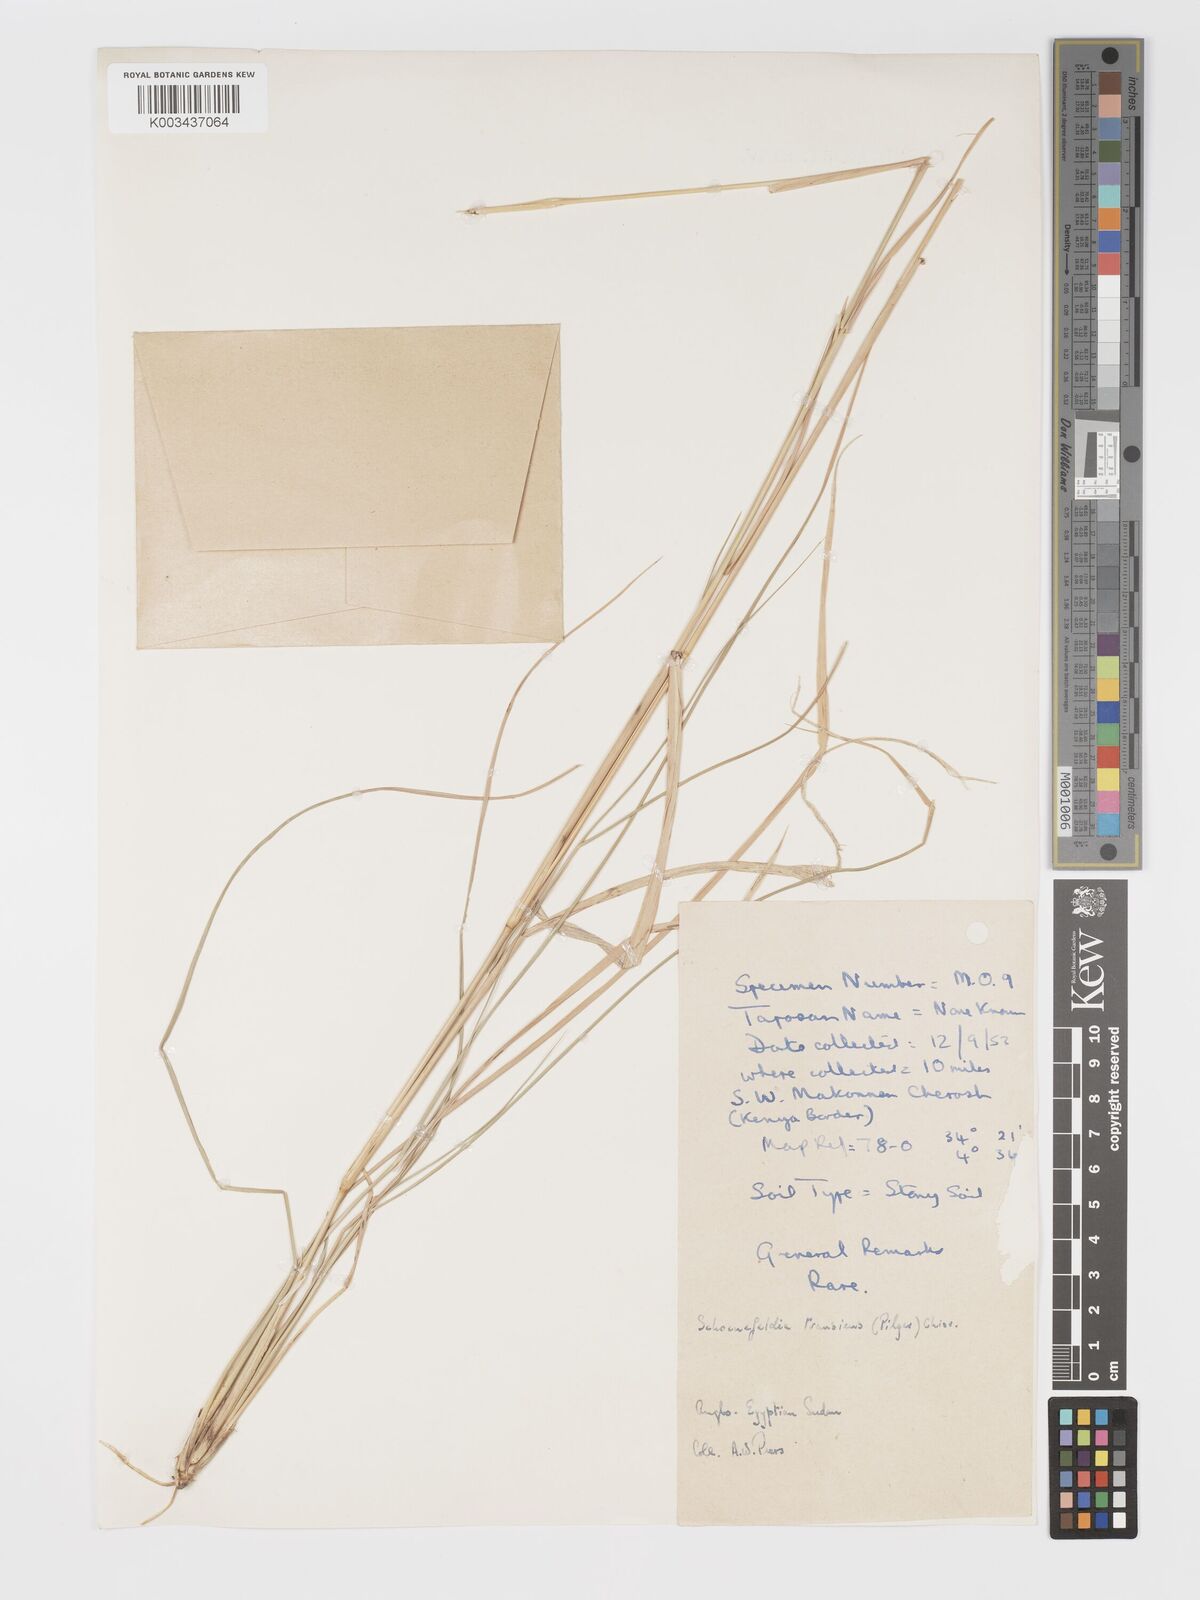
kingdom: Plantae
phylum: Tracheophyta
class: Liliopsida
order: Poales
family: Poaceae
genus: Schoenefeldia
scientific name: Schoenefeldia transiens
